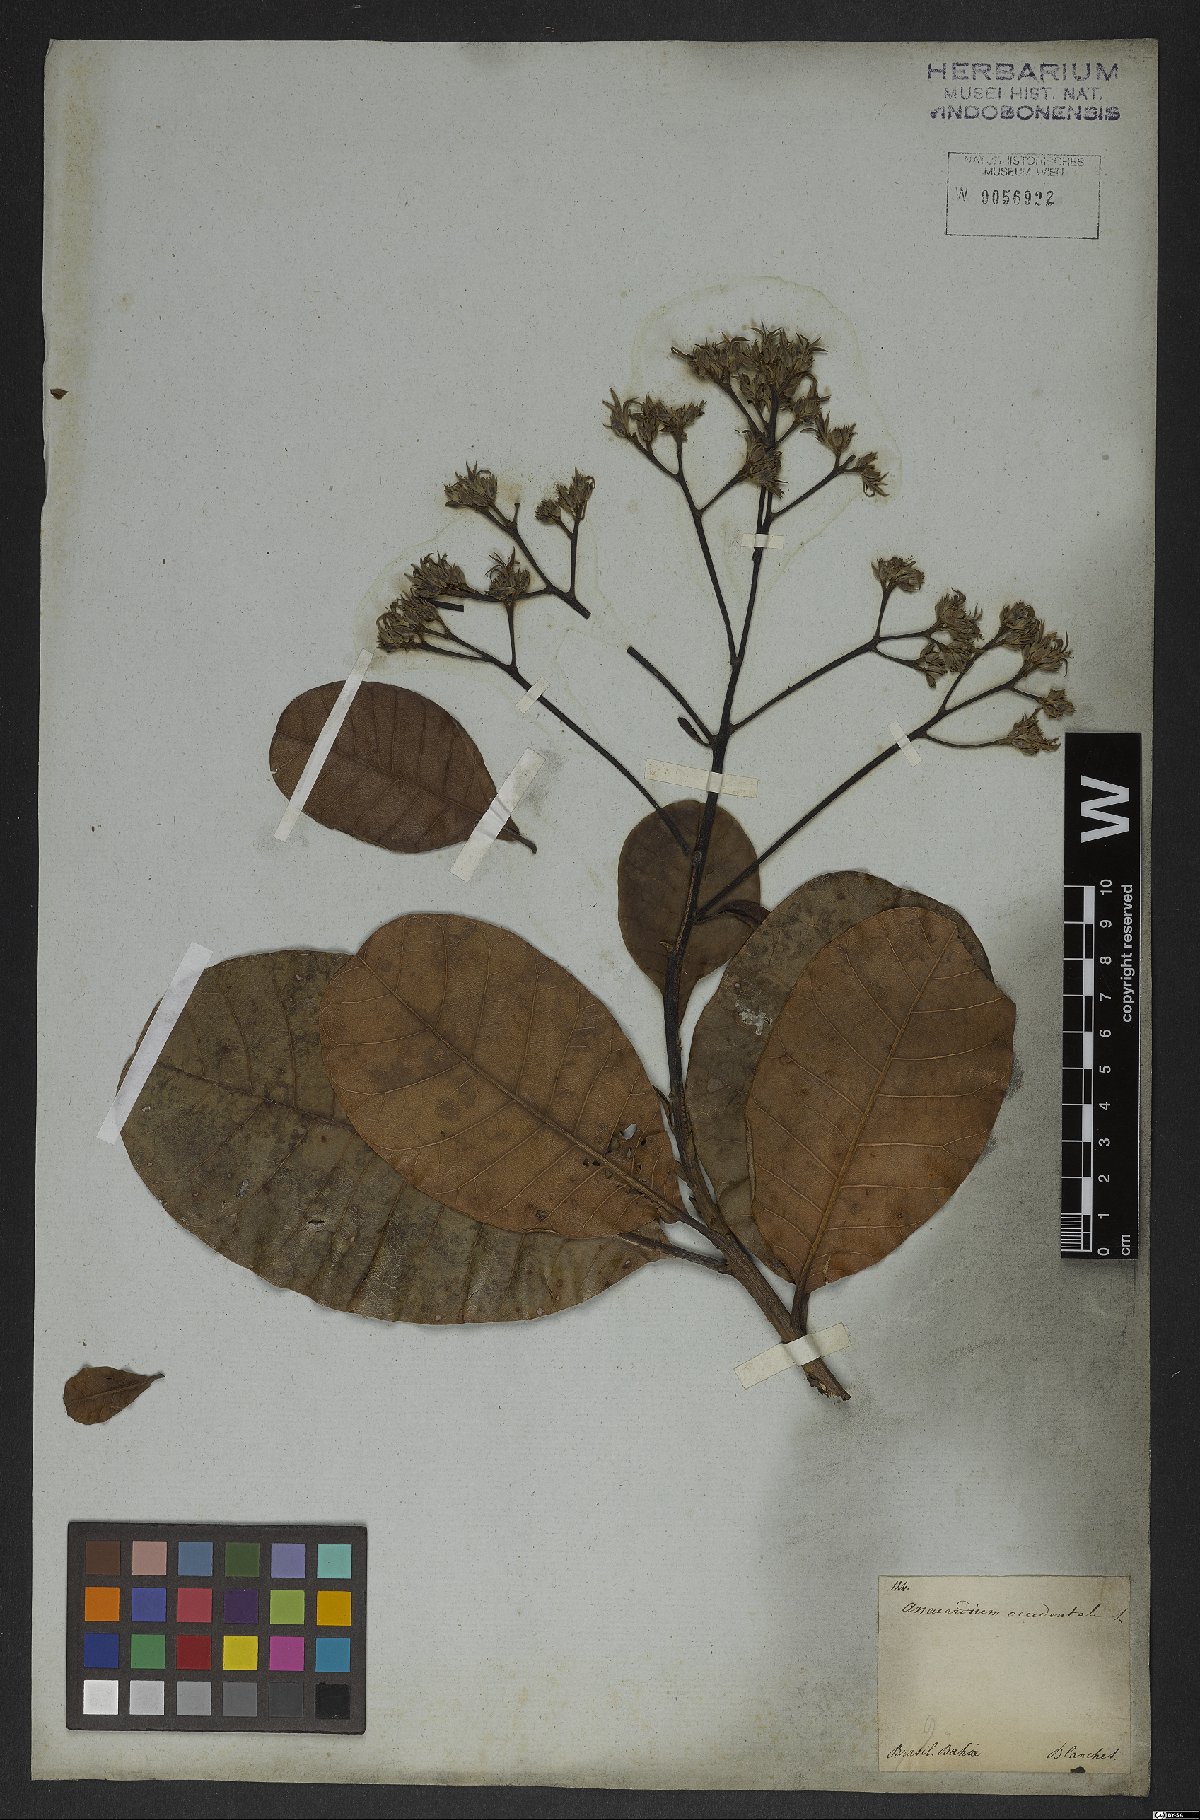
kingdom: Plantae
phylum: Tracheophyta
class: Magnoliopsida
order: Sapindales
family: Anacardiaceae
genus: Anacardium
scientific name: Anacardium occidentale
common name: Cashew
